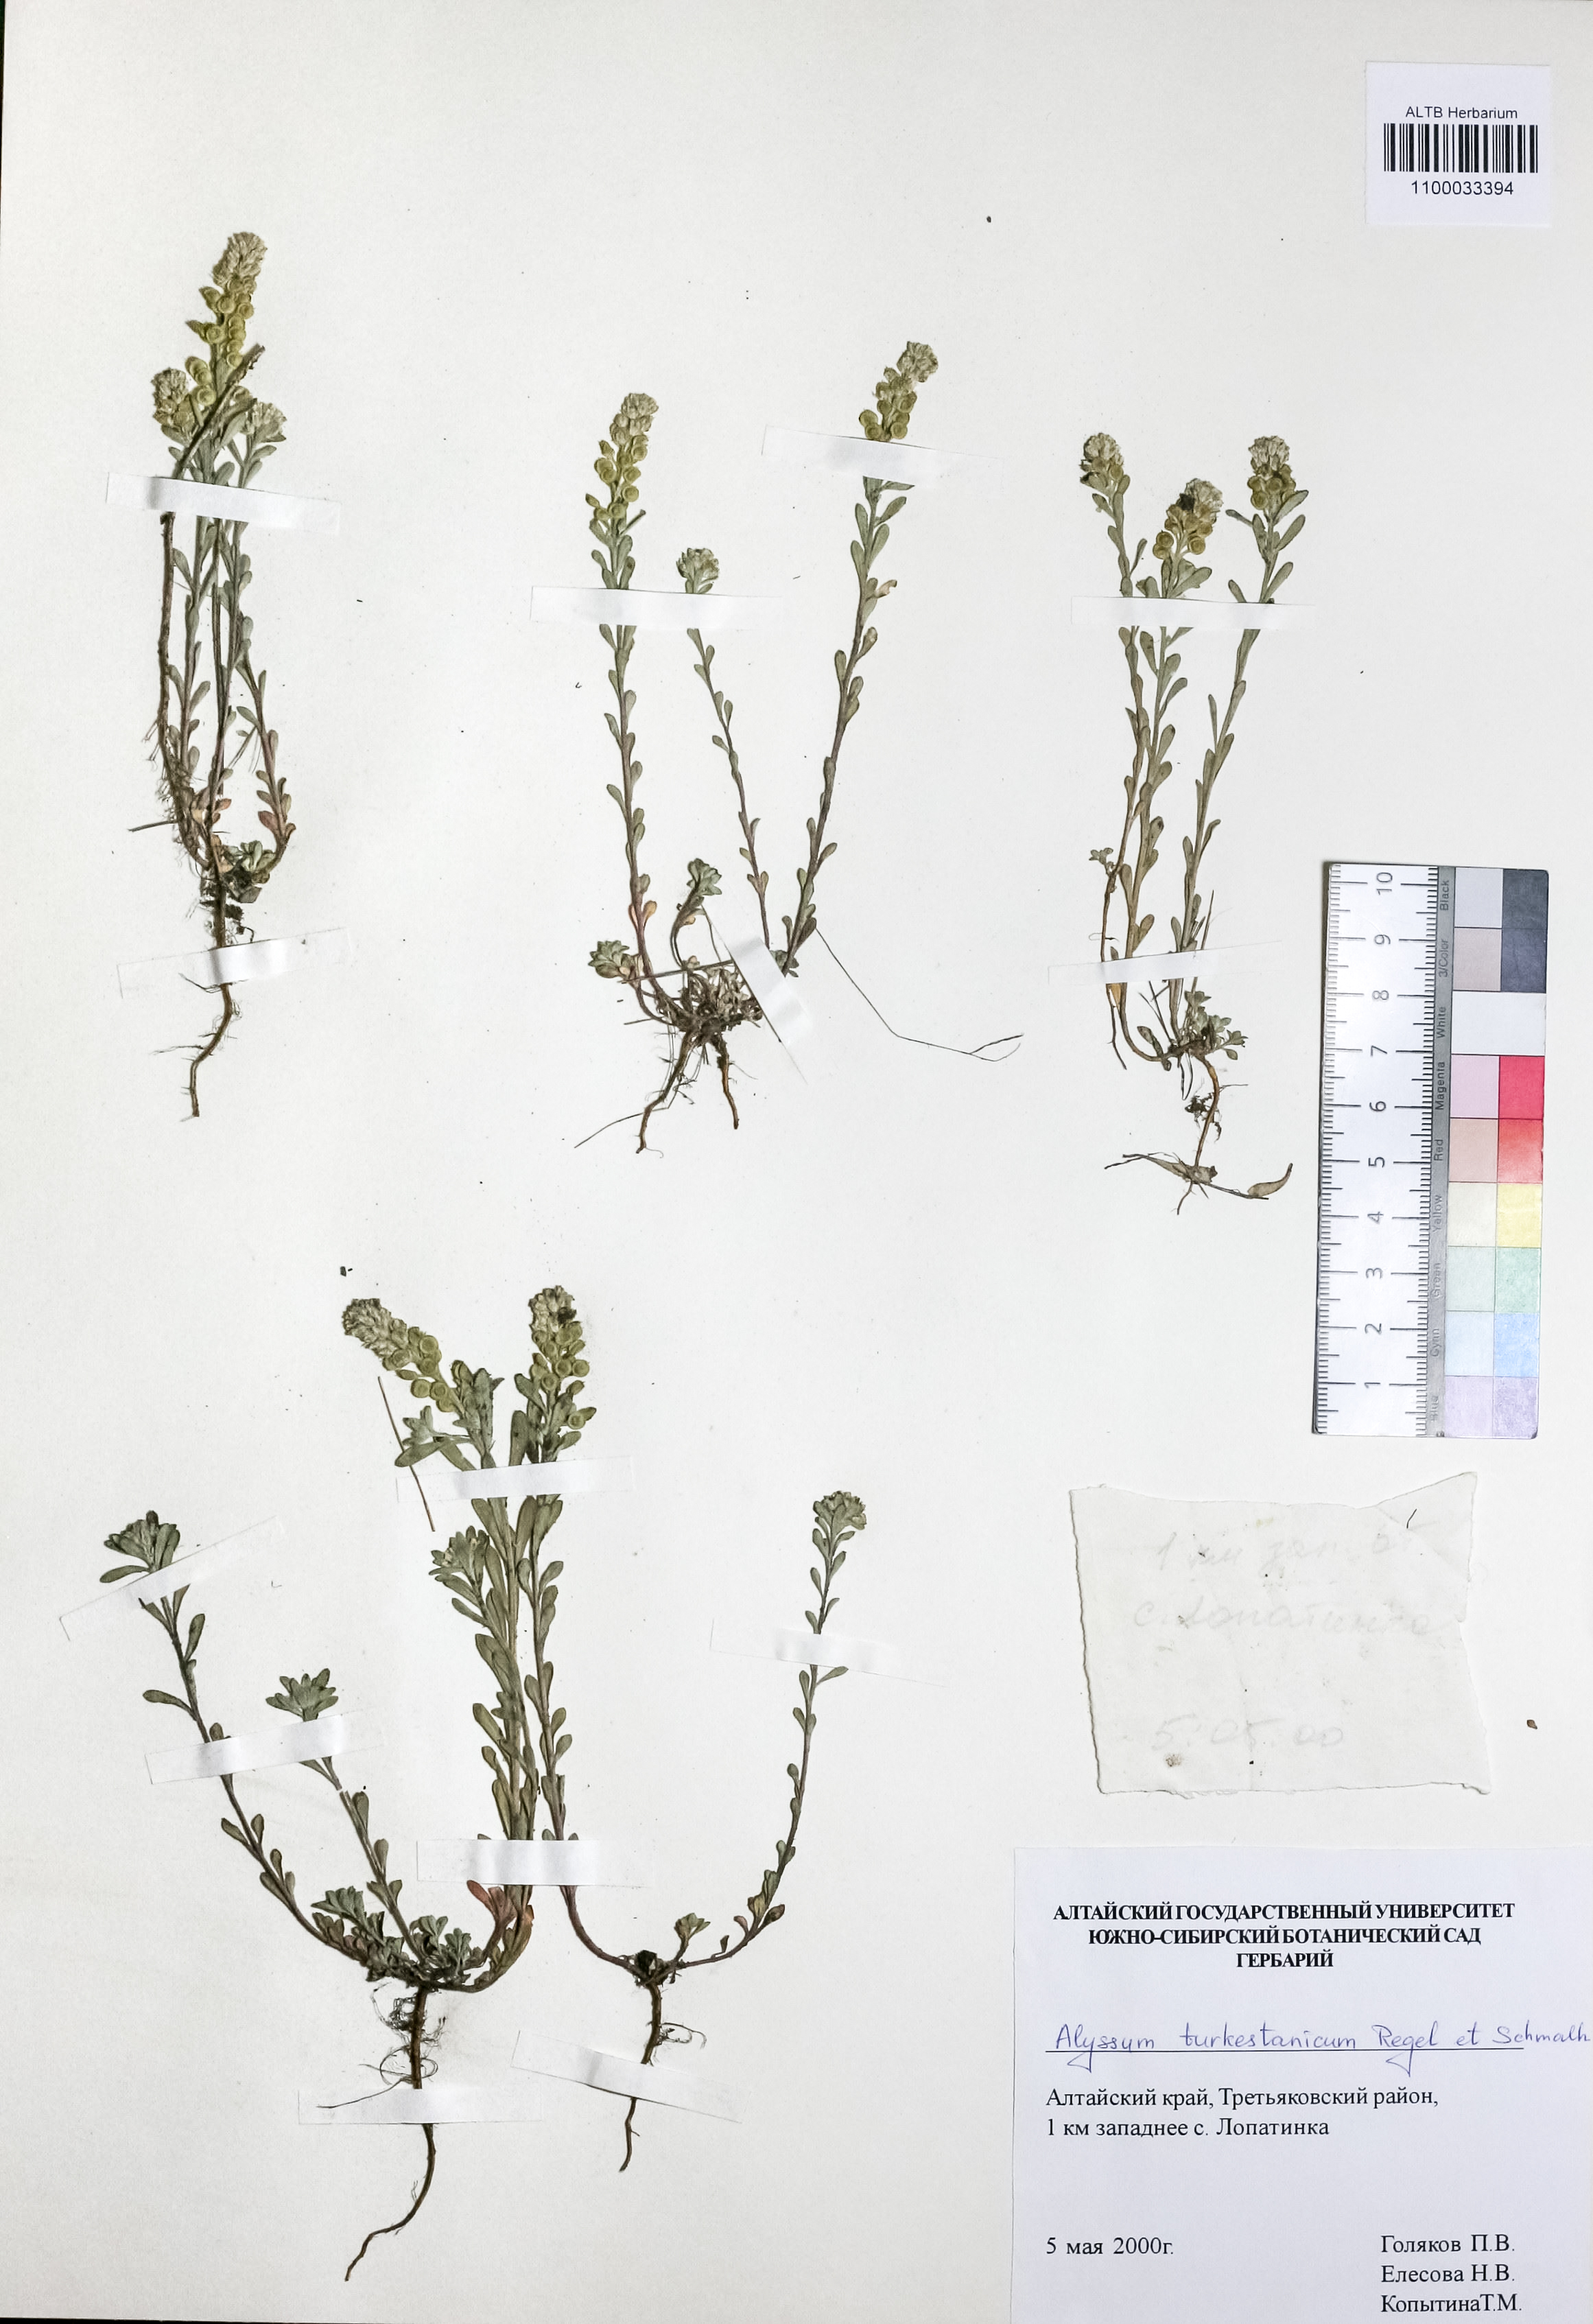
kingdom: Plantae
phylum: Tracheophyta
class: Magnoliopsida
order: Brassicales
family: Brassicaceae
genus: Alyssum
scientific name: Alyssum turkestanicum
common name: Desert alyssum
